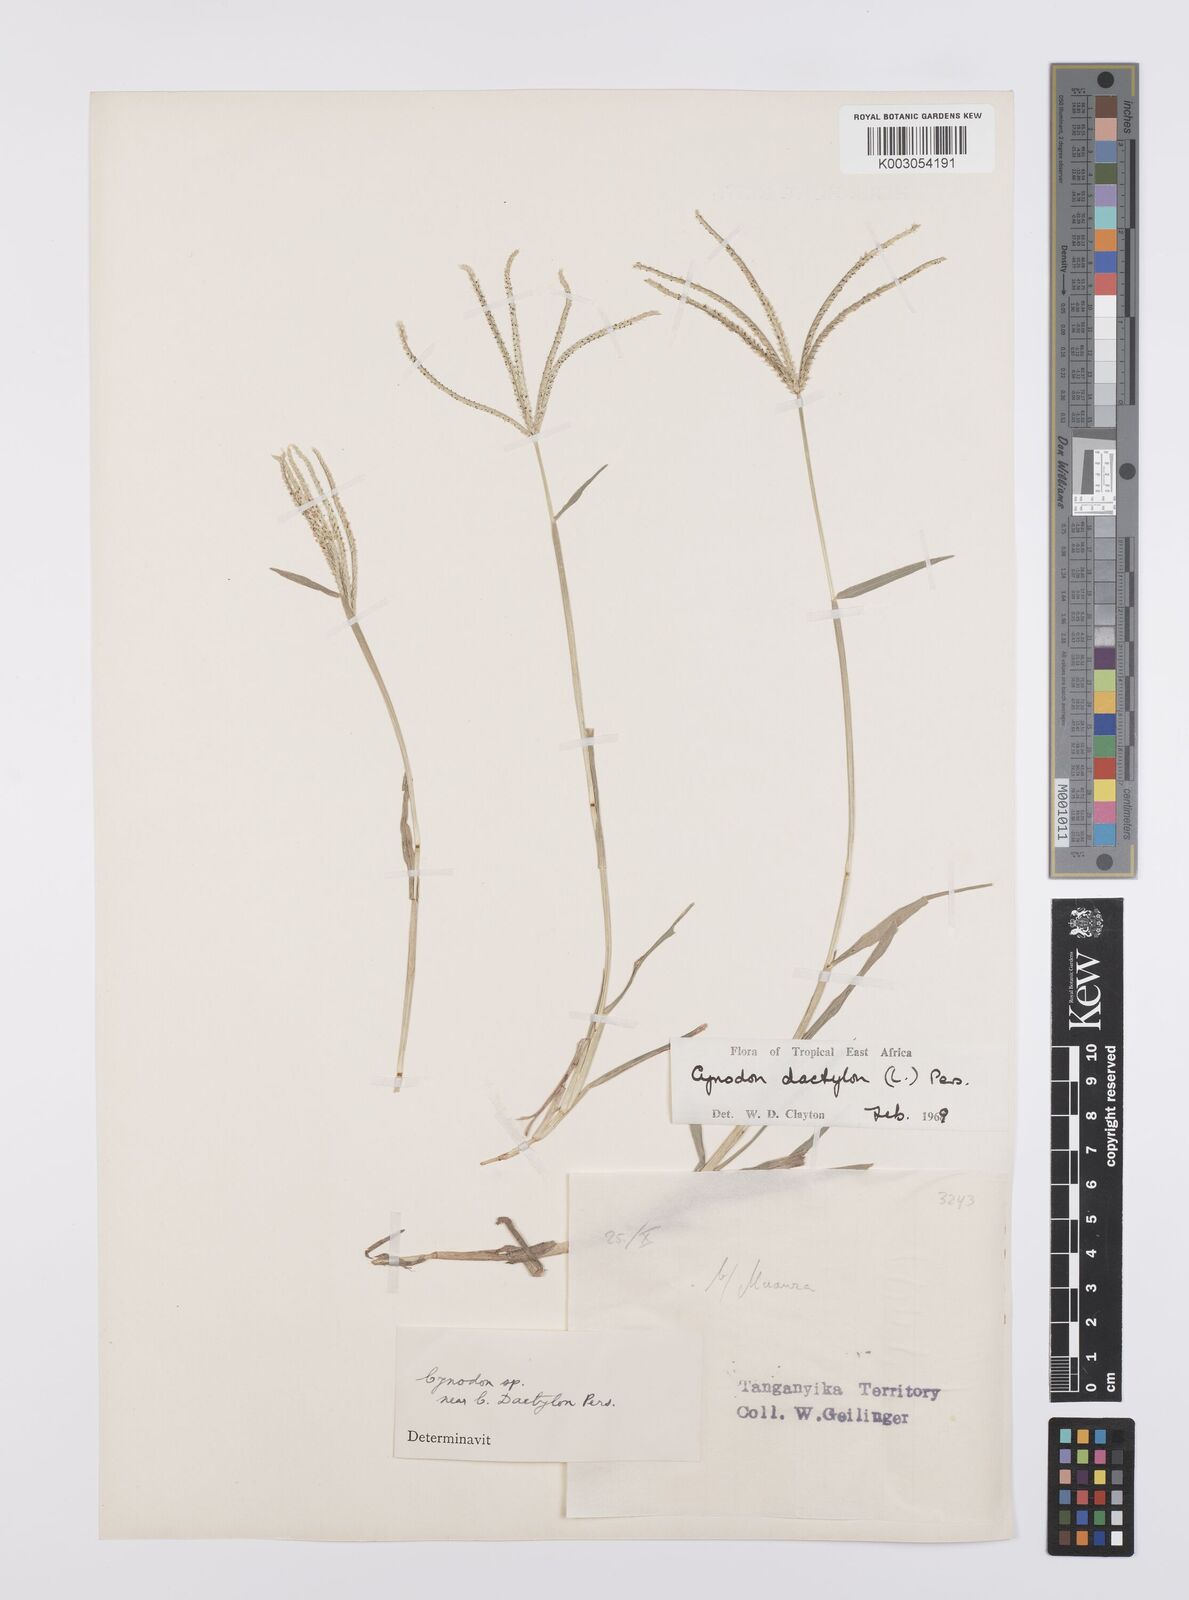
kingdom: Plantae
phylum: Tracheophyta
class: Liliopsida
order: Poales
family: Poaceae
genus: Cynodon
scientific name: Cynodon dactylon
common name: Bermuda grass
